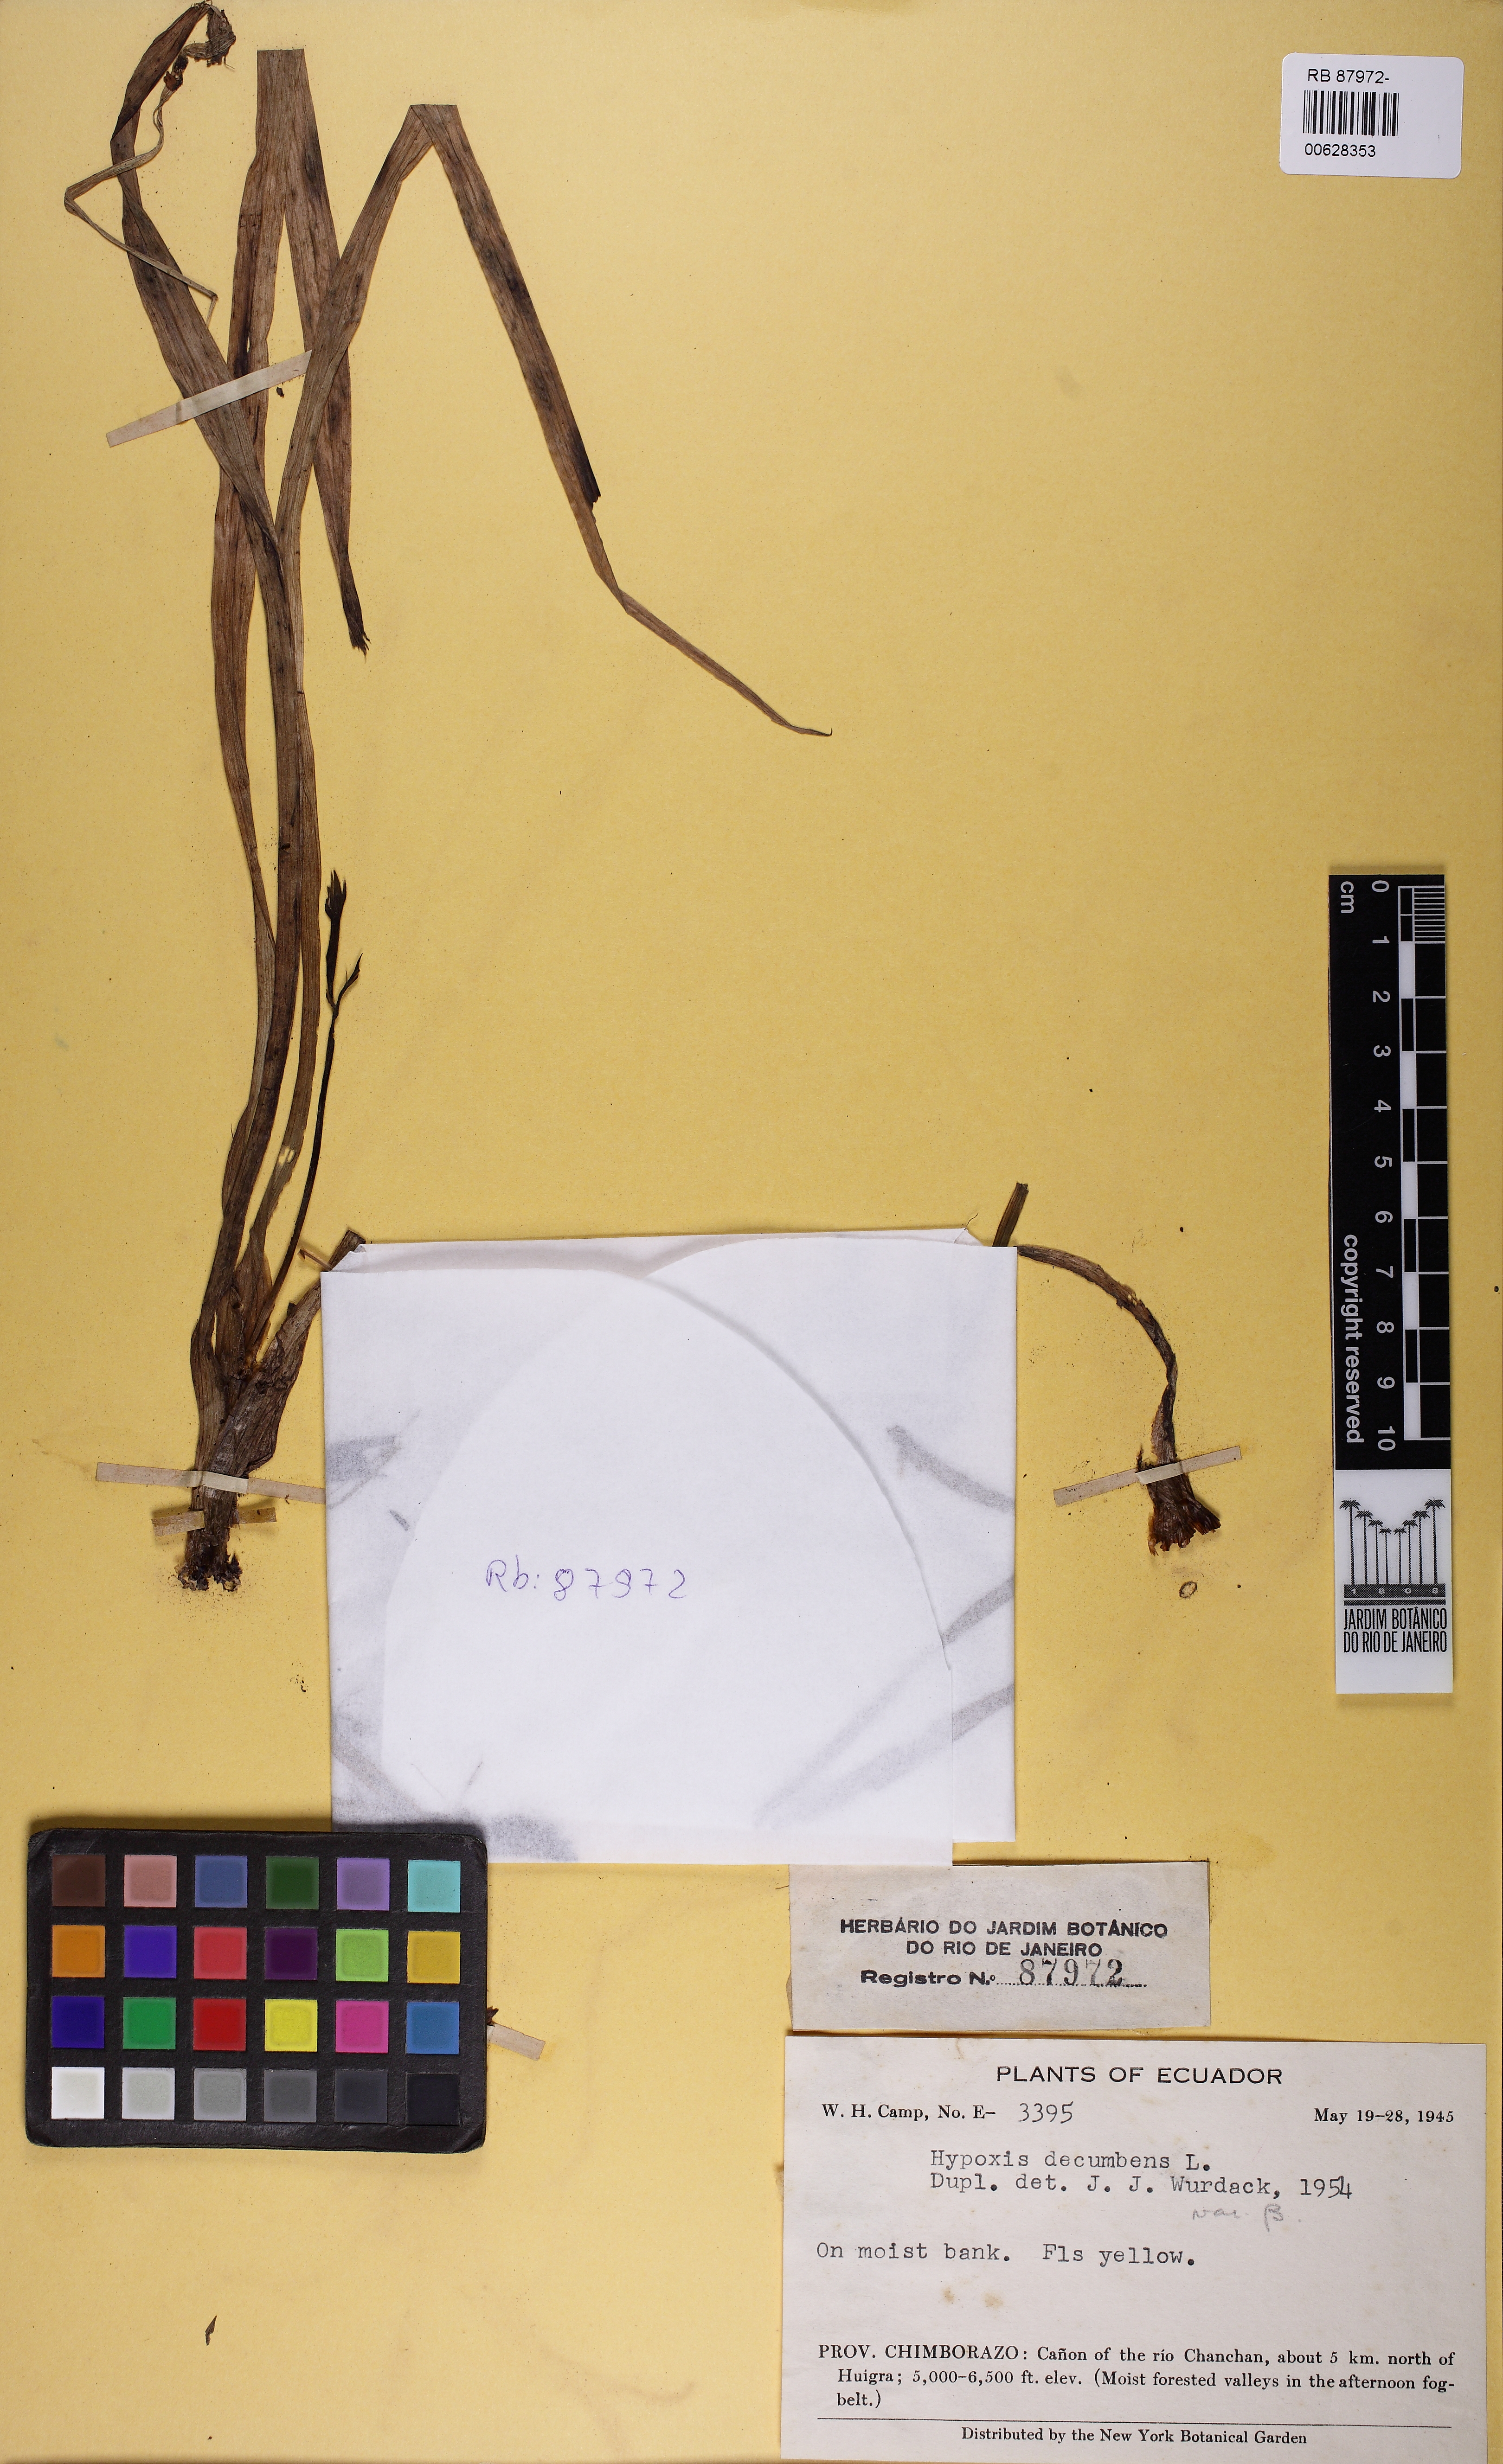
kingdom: Plantae
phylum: Tracheophyta
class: Liliopsida
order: Asparagales
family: Hypoxidaceae
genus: Hypoxis
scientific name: Hypoxis decumbens
